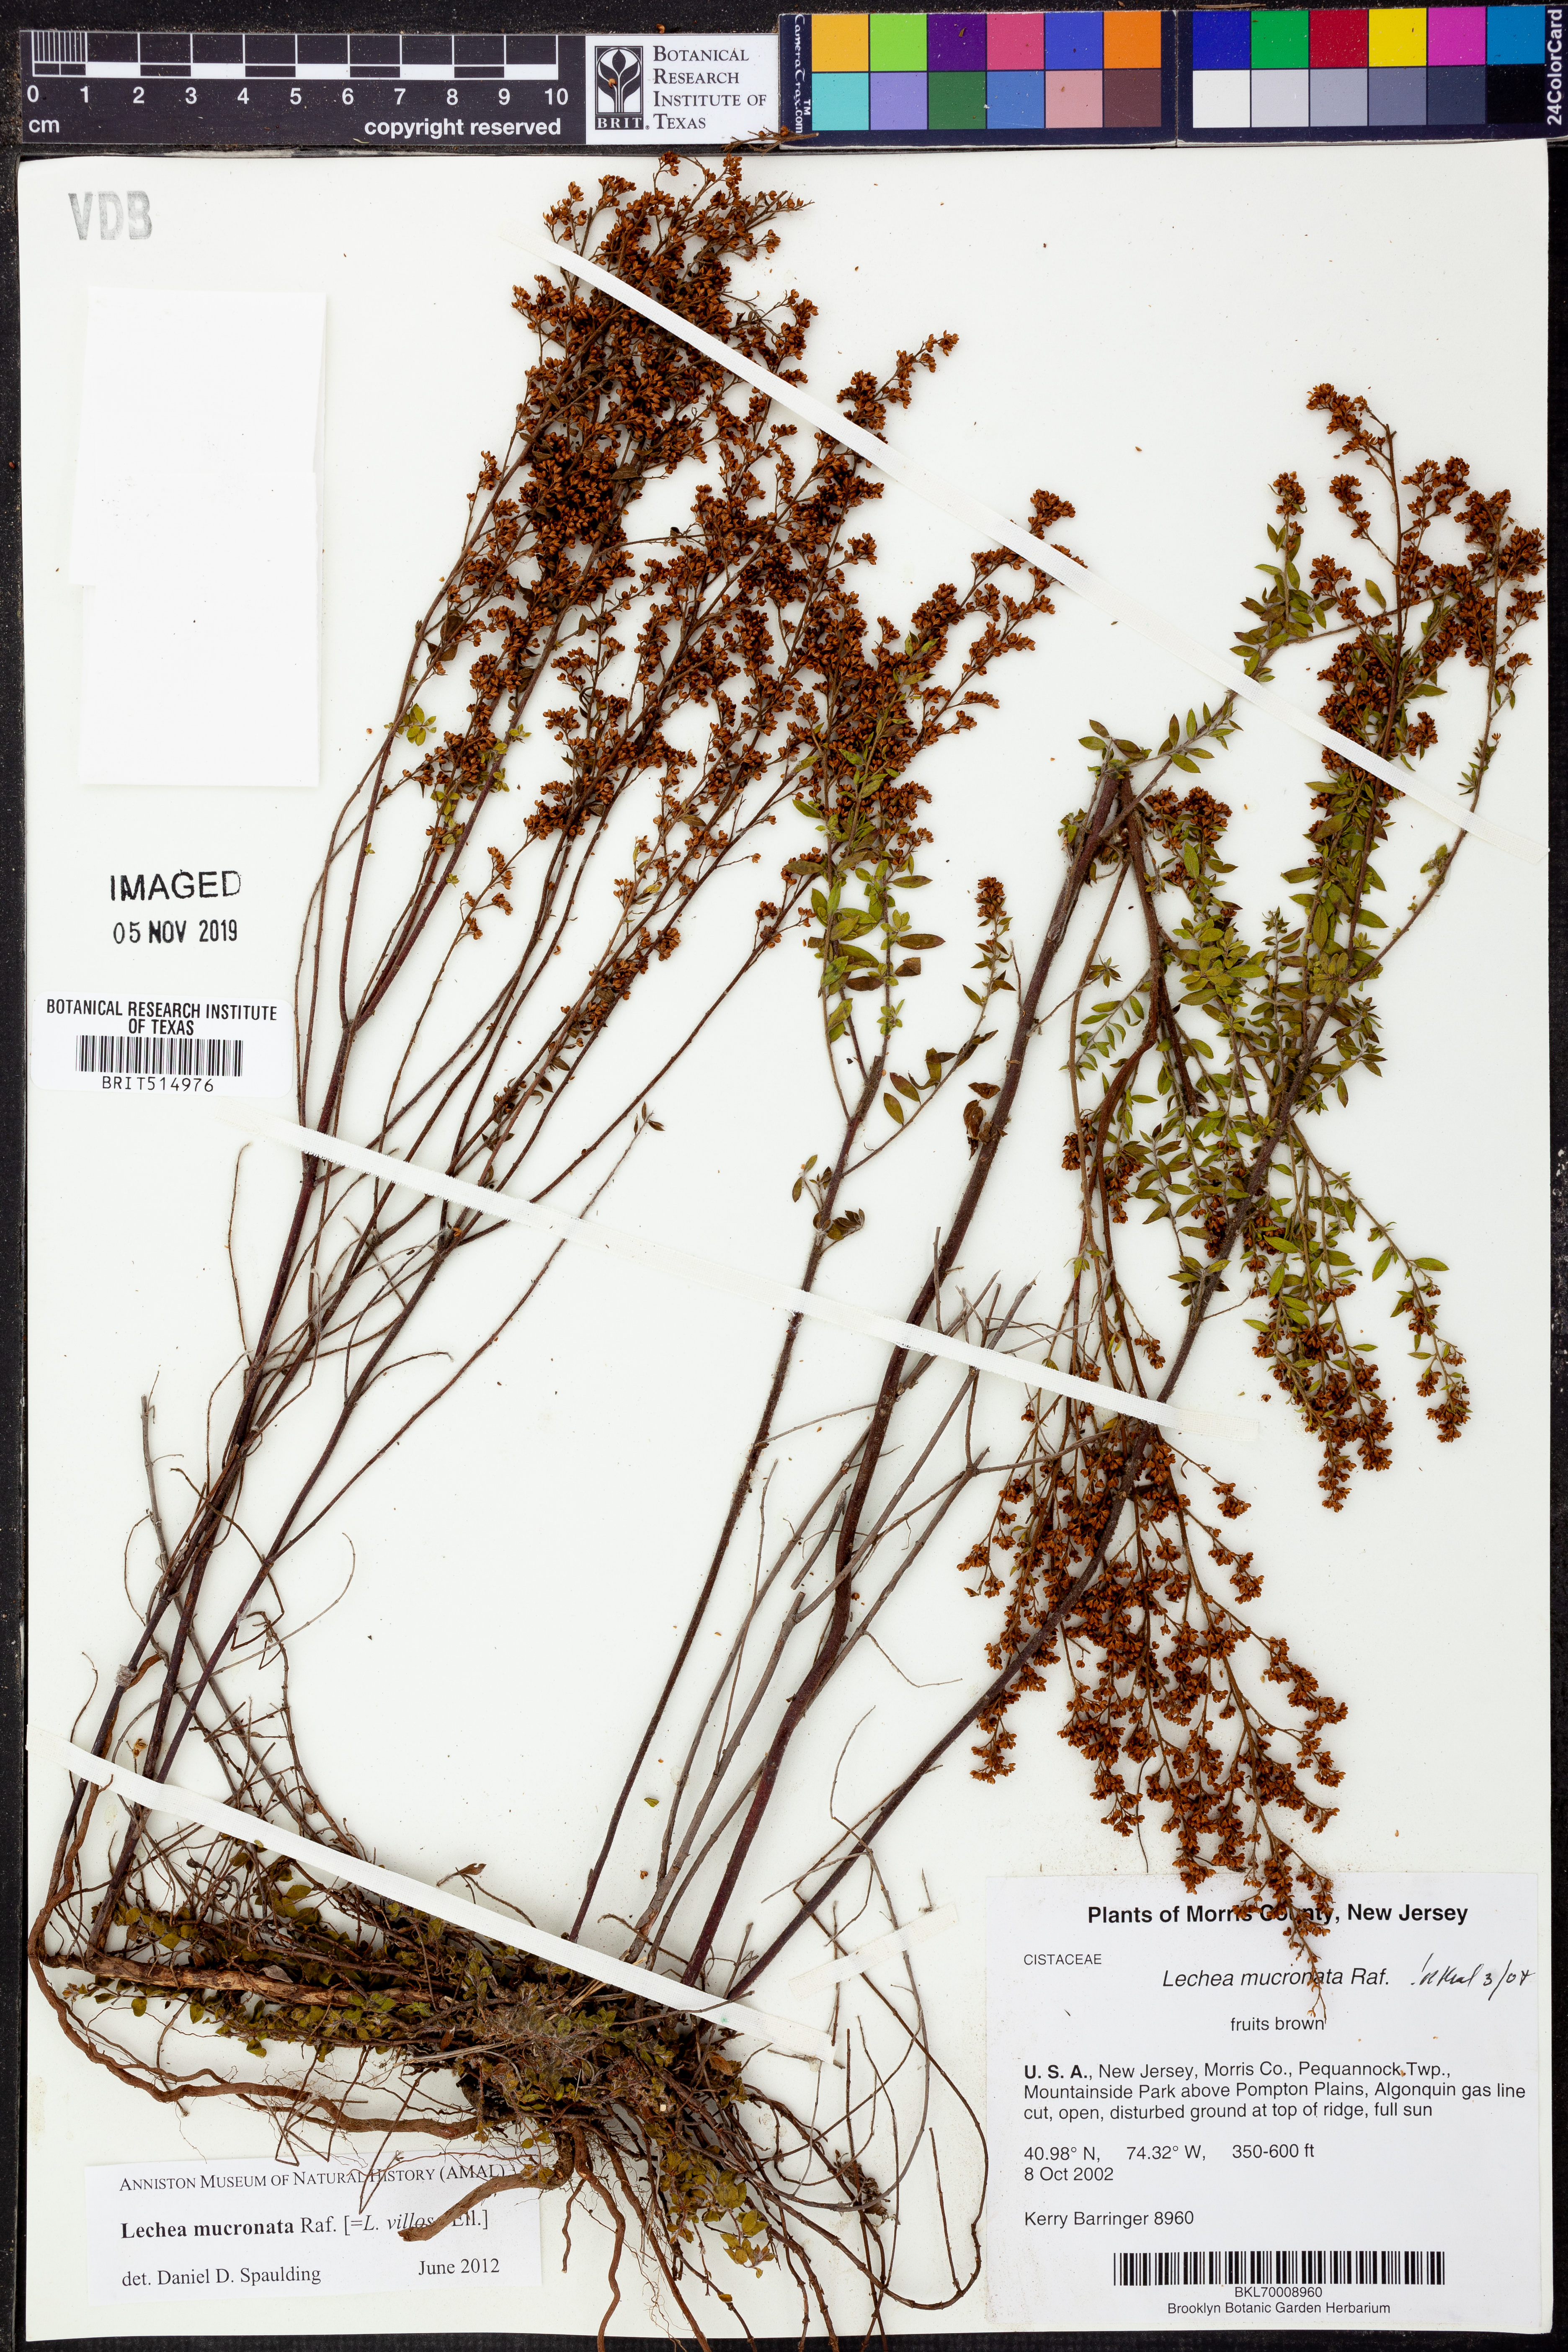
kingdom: Plantae
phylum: Tracheophyta
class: Magnoliopsida
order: Malvales
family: Cistaceae
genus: Lechea
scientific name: Lechea mucronata
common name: Hairy pinweed
